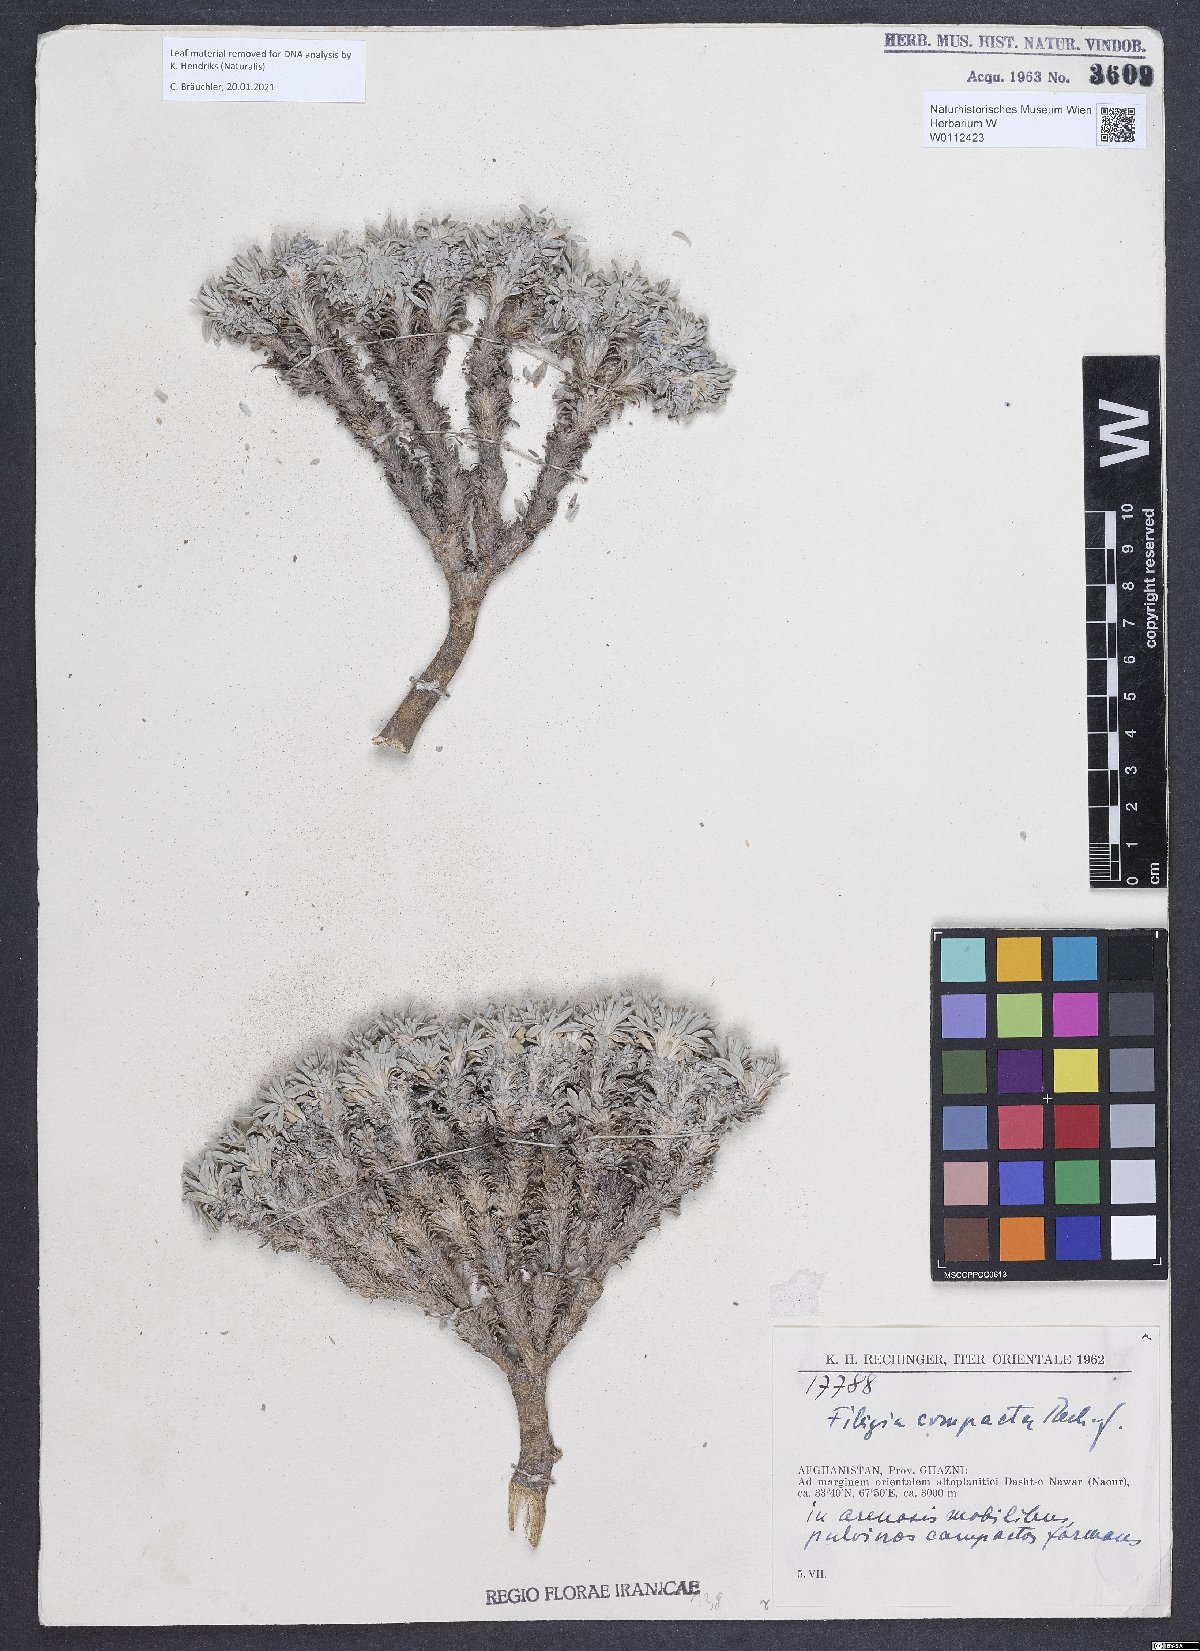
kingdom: Plantae
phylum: Tracheophyta
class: Magnoliopsida
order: Brassicales
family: Brassicaceae
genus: Irania
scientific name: Irania compacta
